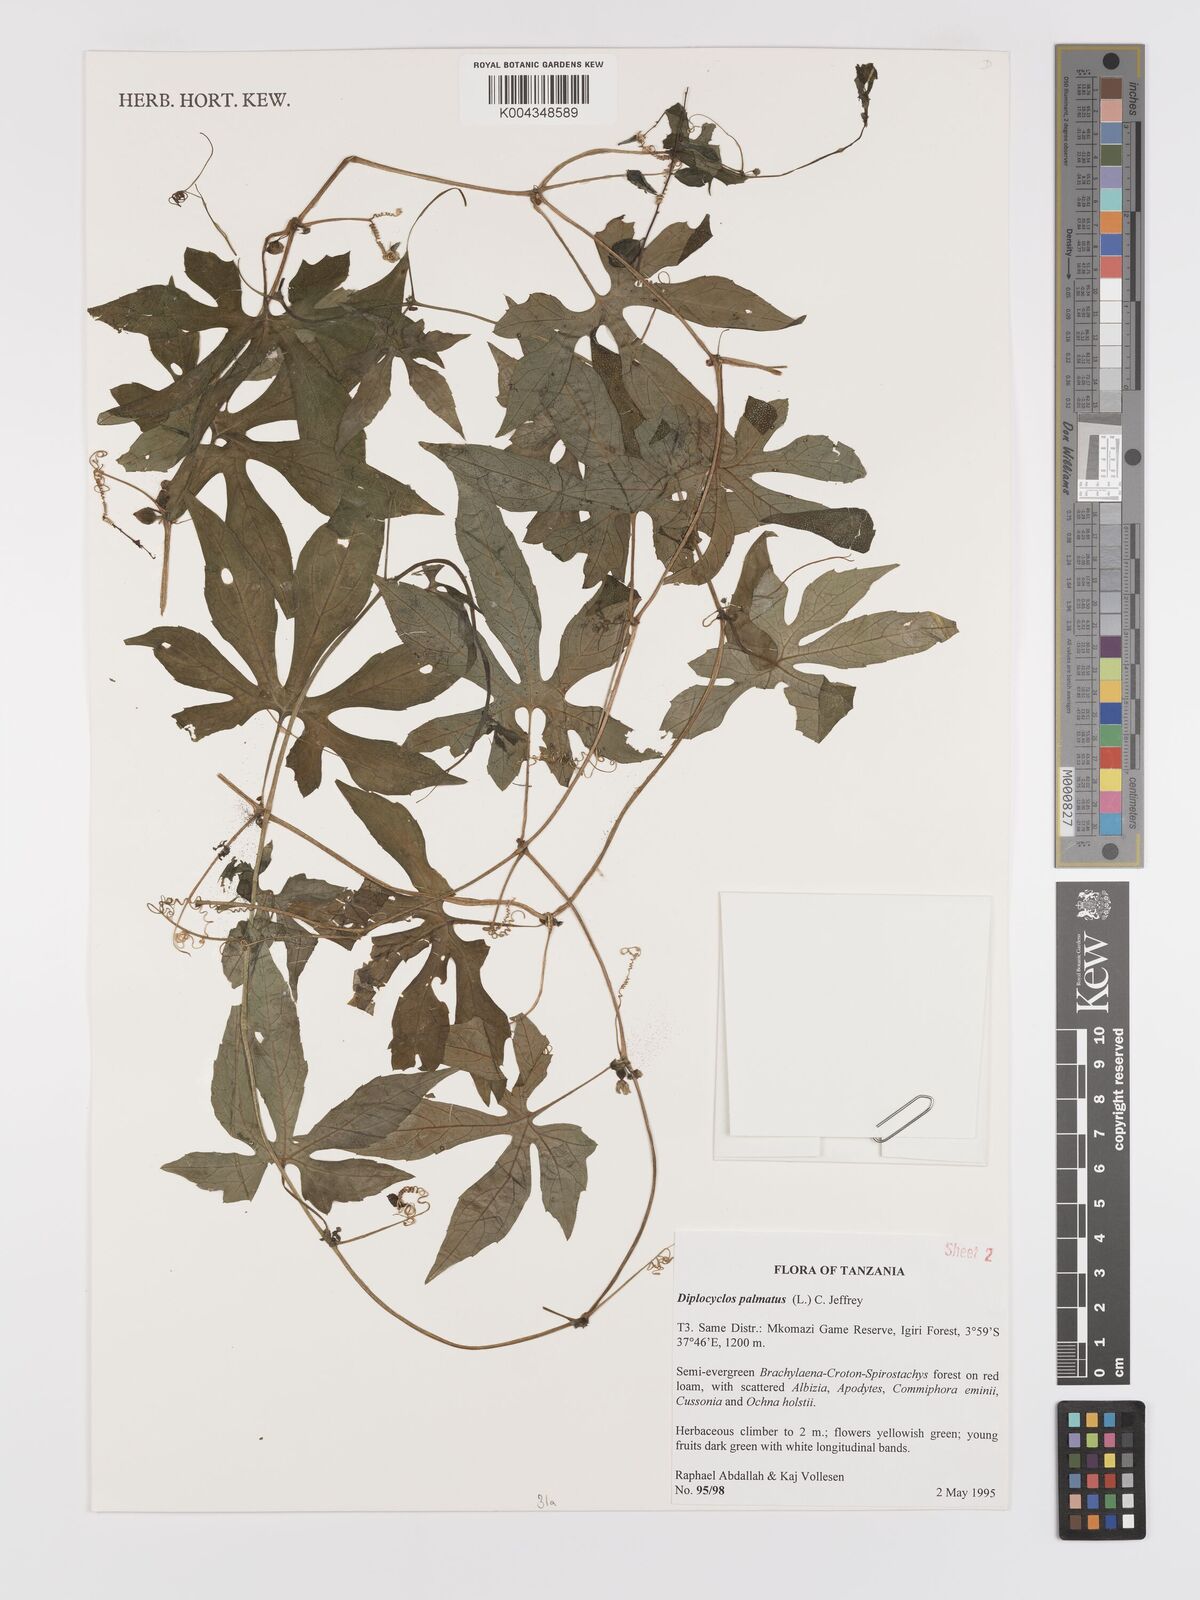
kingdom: Plantae
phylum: Tracheophyta
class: Magnoliopsida
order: Cucurbitales
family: Cucurbitaceae
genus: Diplocyclos
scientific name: Diplocyclos palmatus
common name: Striped-cucumber
